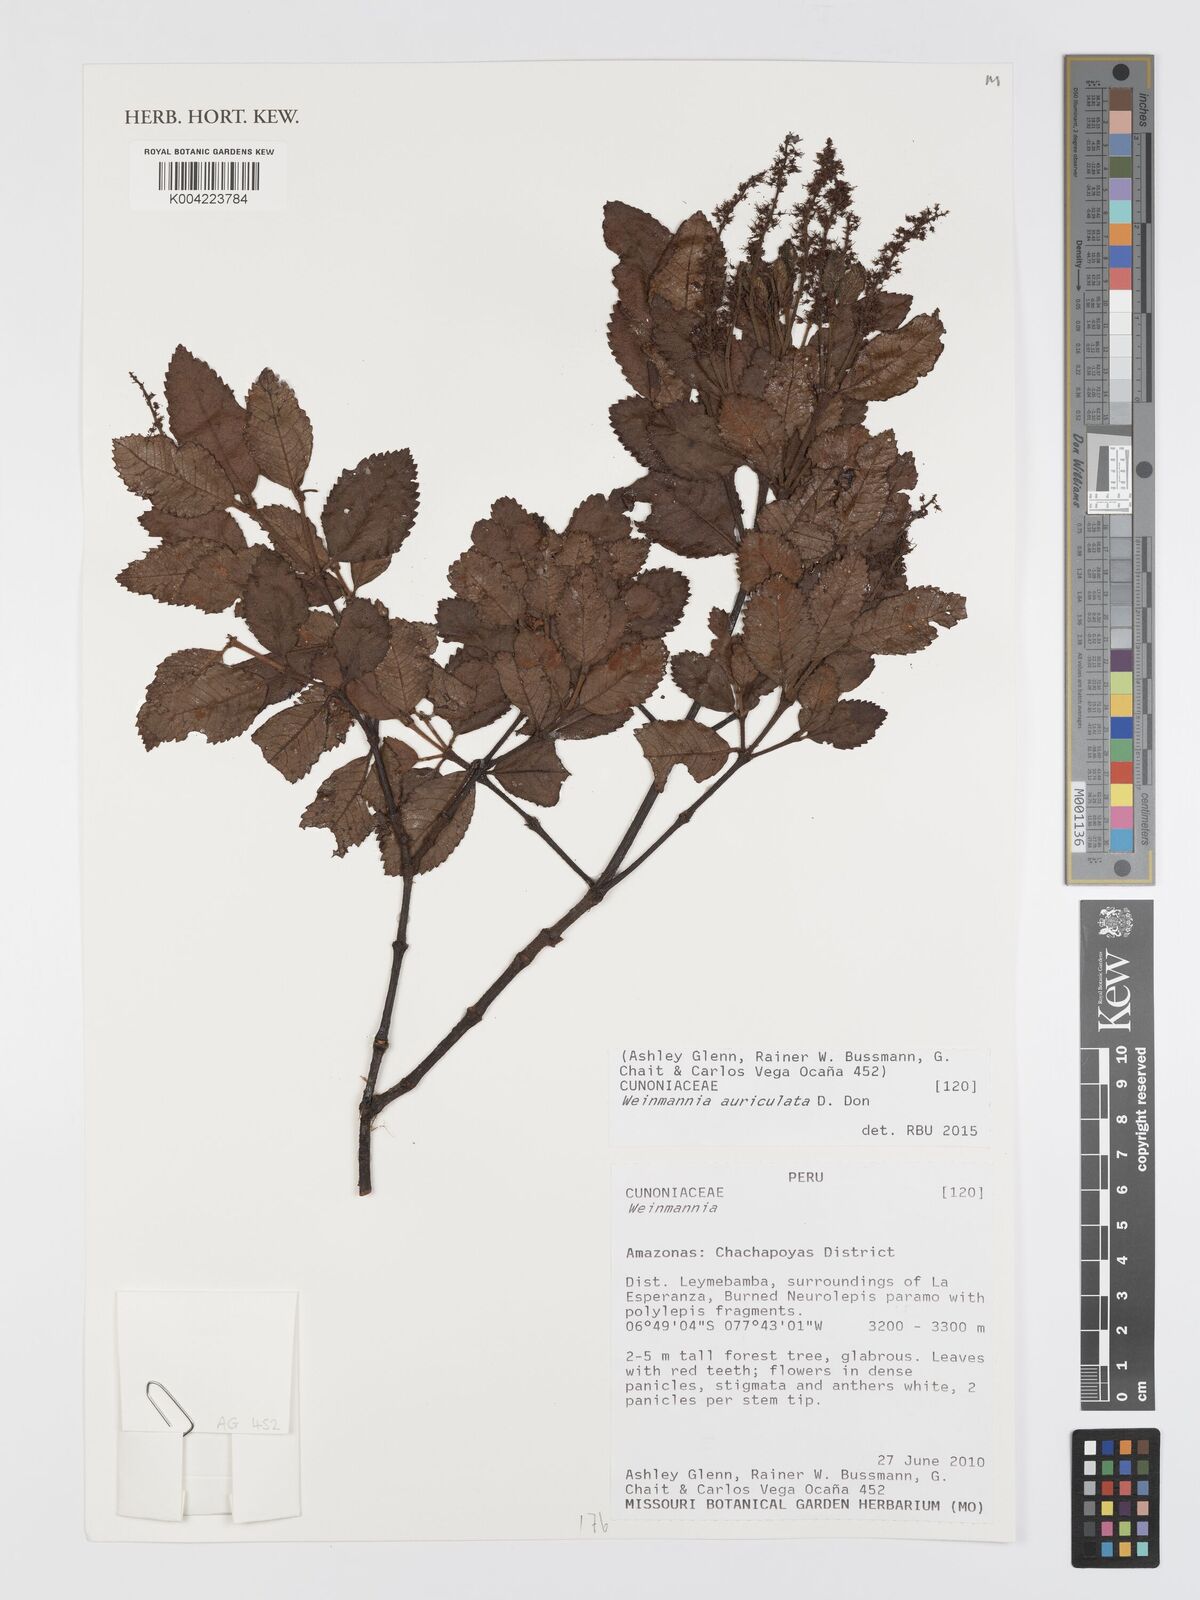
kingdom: Plantae
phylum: Tracheophyta
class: Magnoliopsida
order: Oxalidales
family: Cunoniaceae
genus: Weinmannia
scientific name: Weinmannia auriculata
